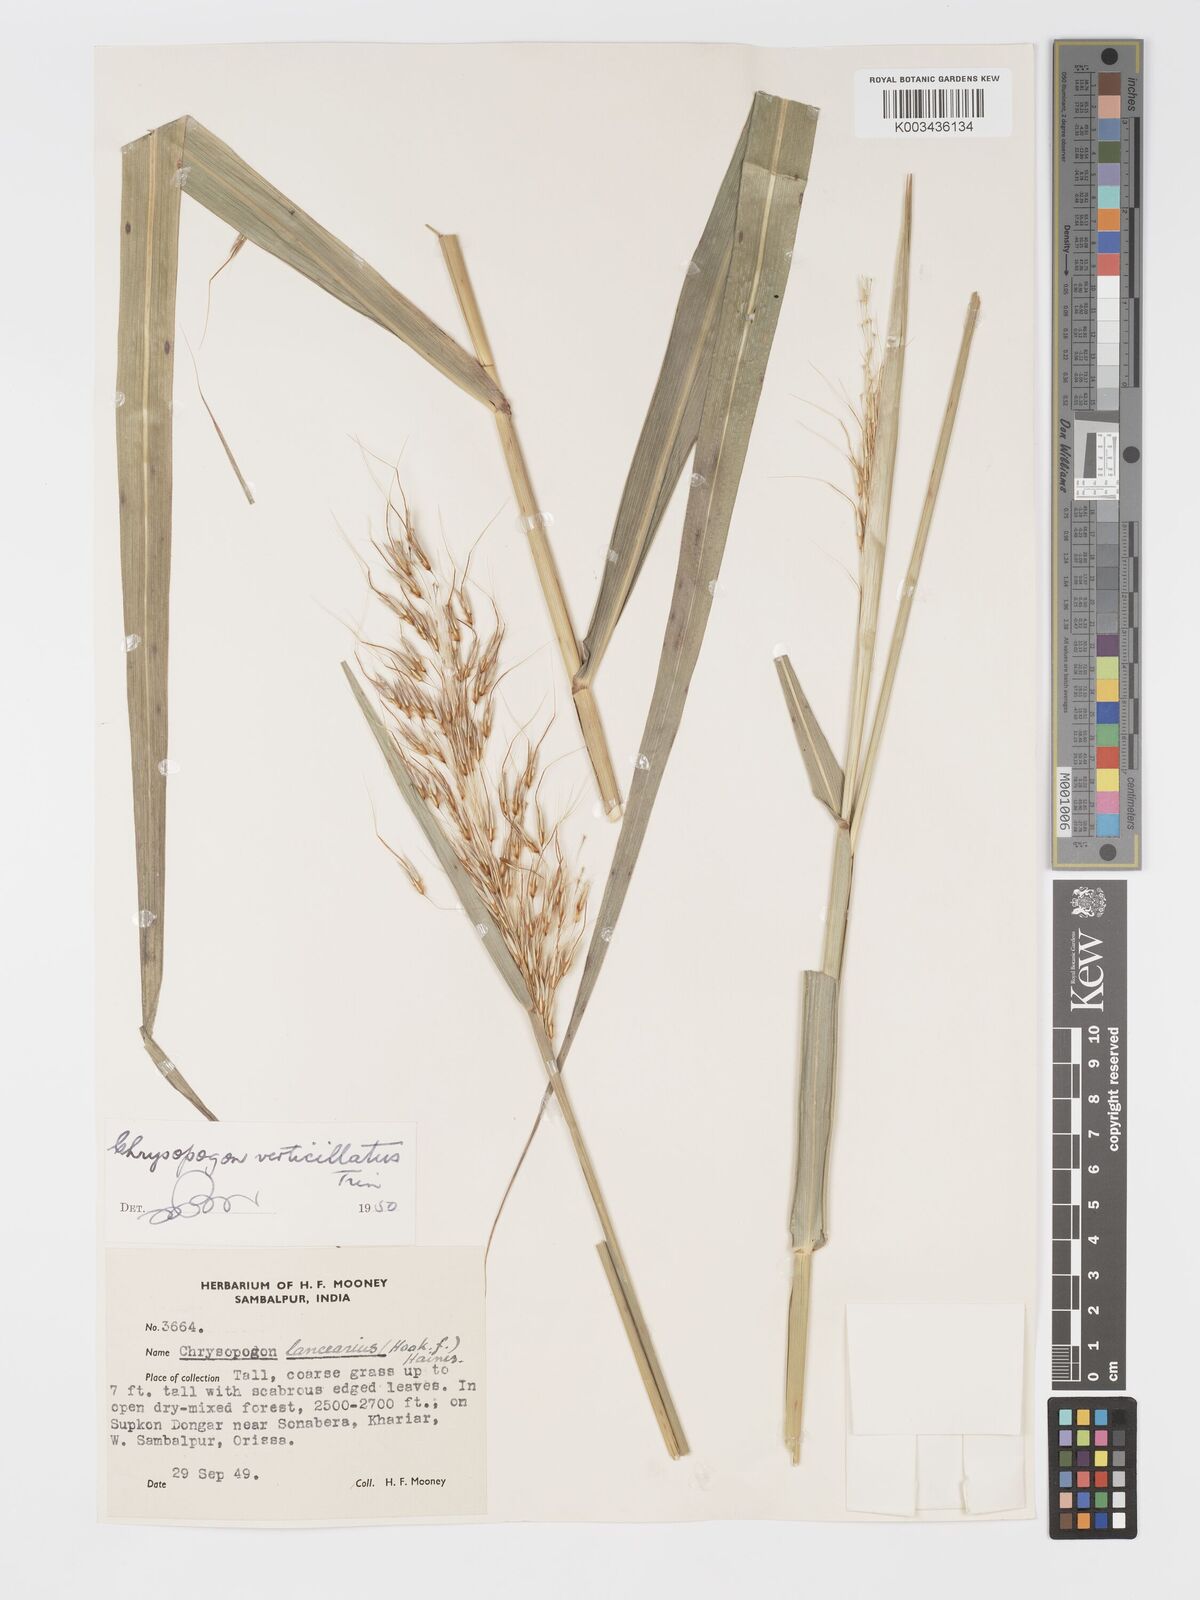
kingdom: Plantae
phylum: Tracheophyta
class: Liliopsida
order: Poales
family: Poaceae
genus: Chrysopogon
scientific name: Chrysopogon verticillatus
